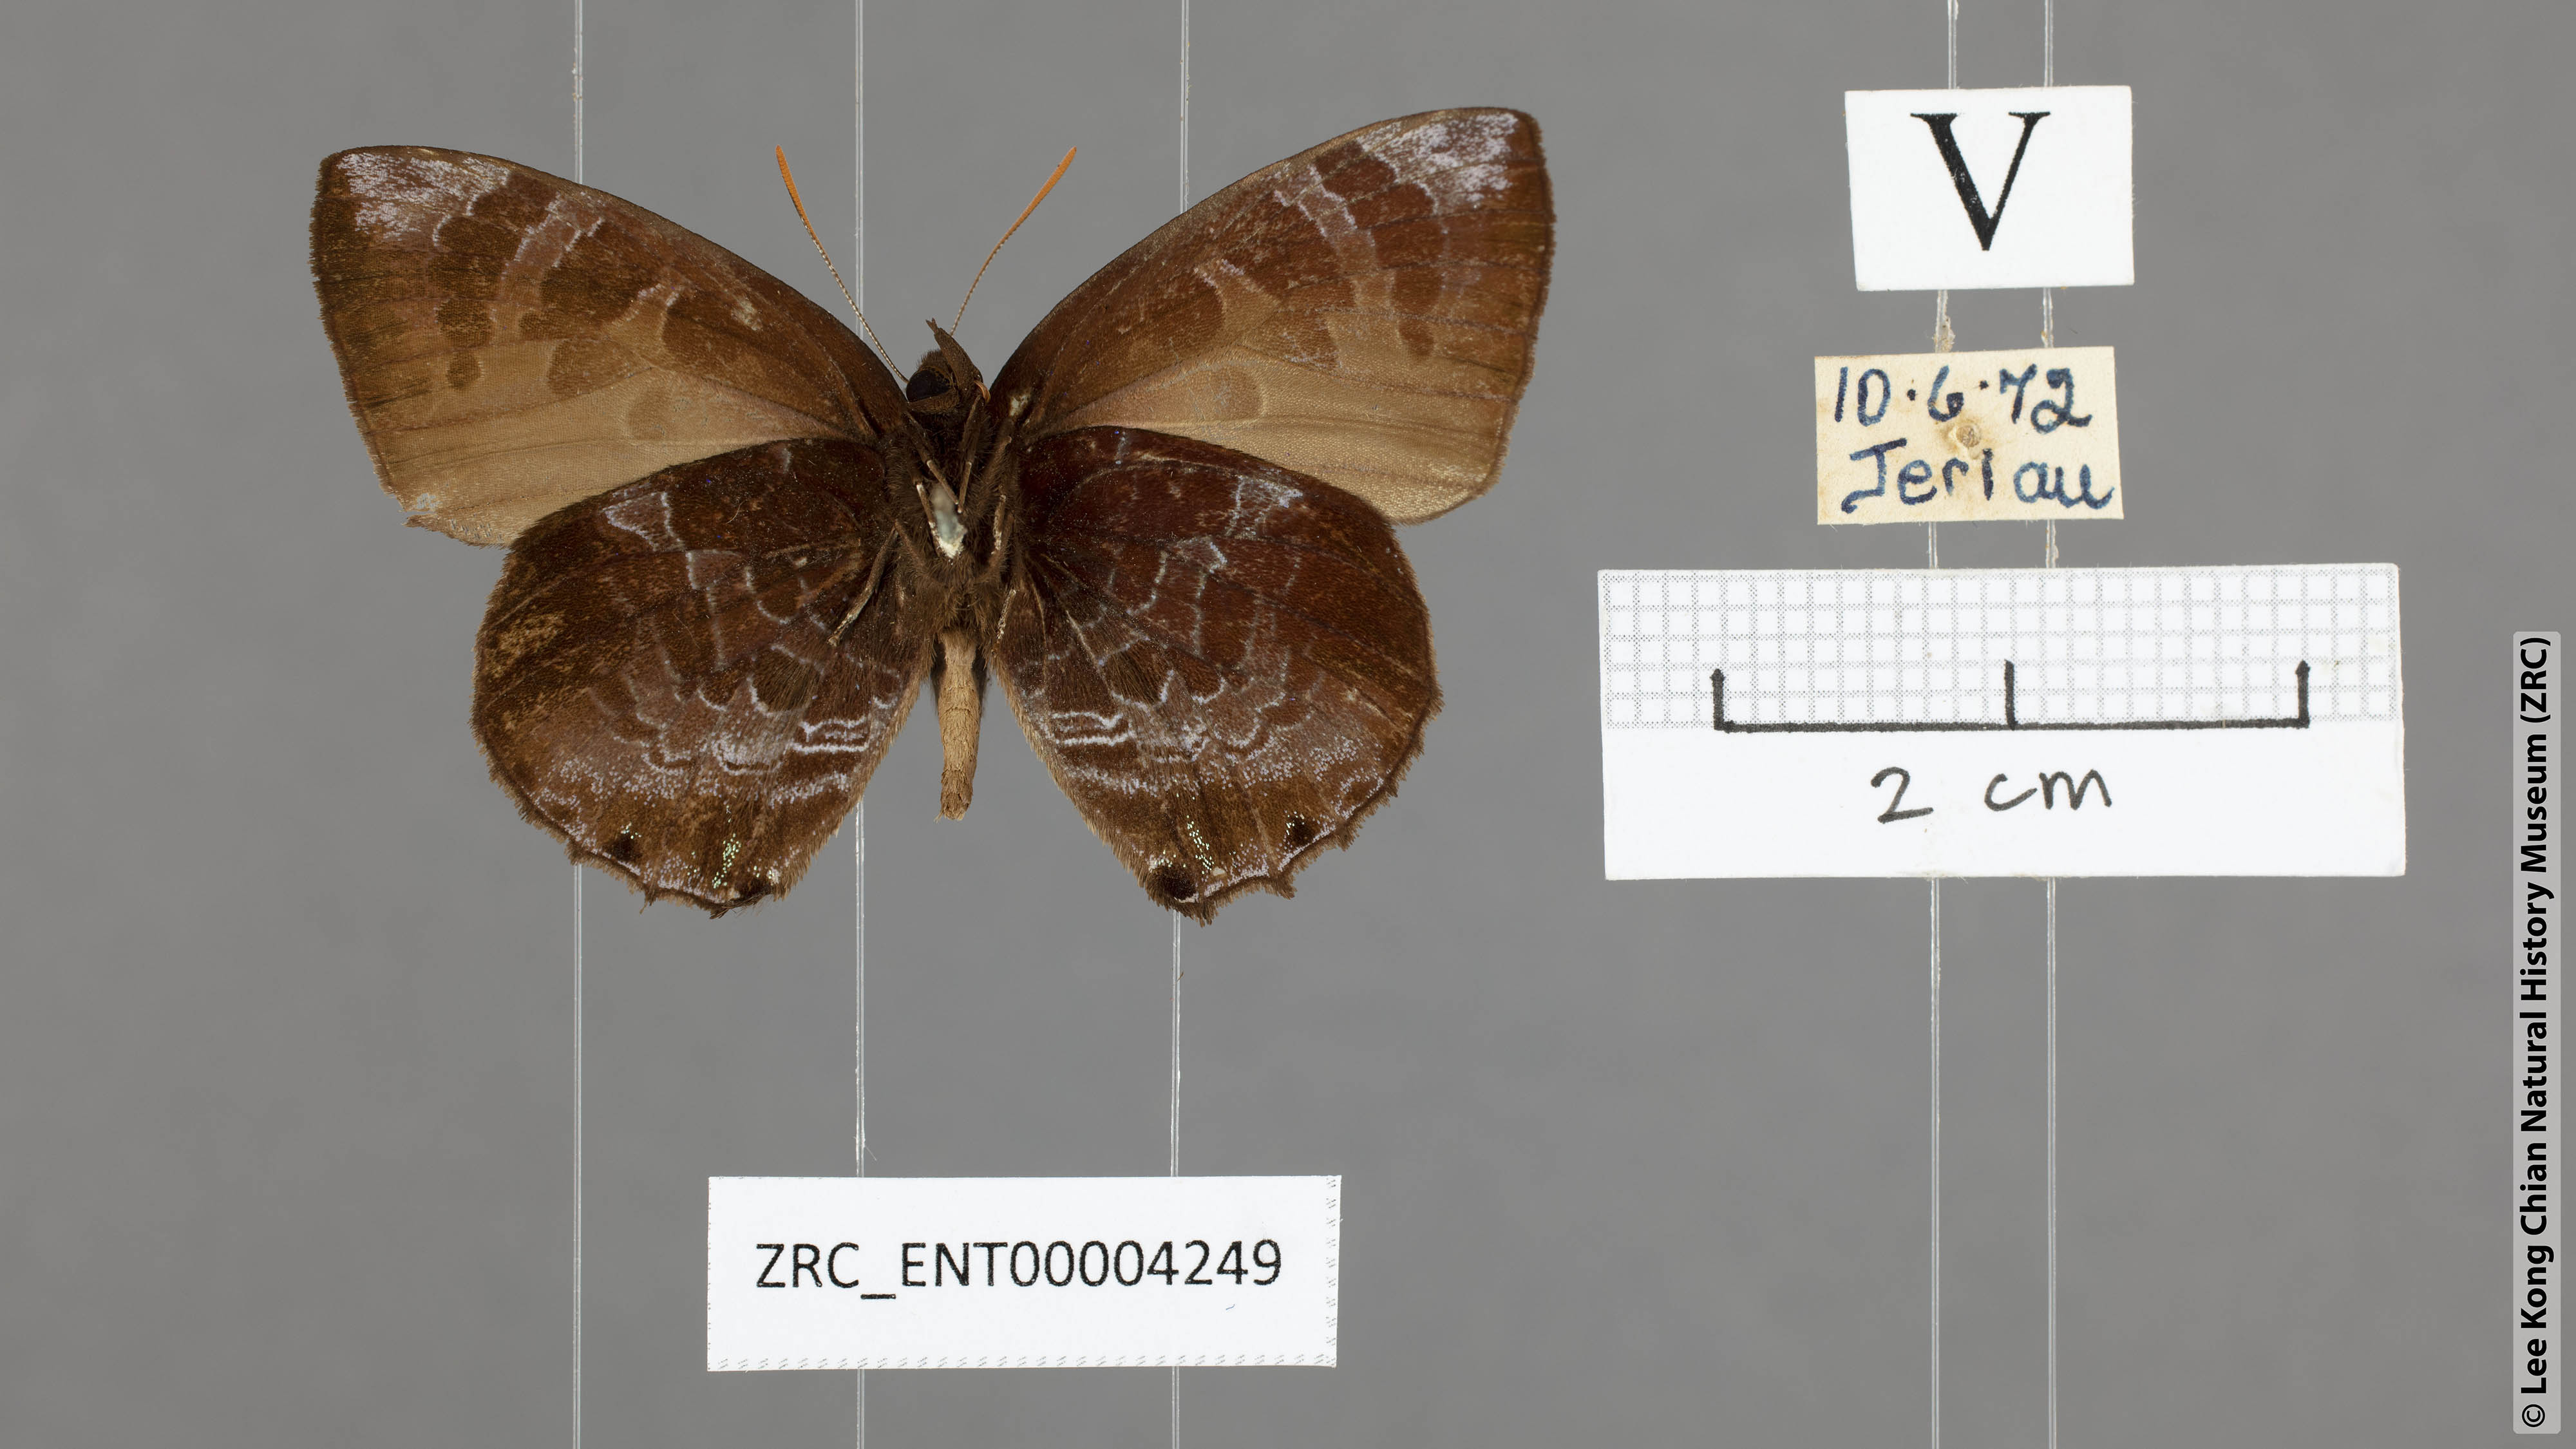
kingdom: Animalia
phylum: Arthropoda
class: Insecta
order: Lepidoptera
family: Lycaenidae
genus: Flos
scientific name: Flos
